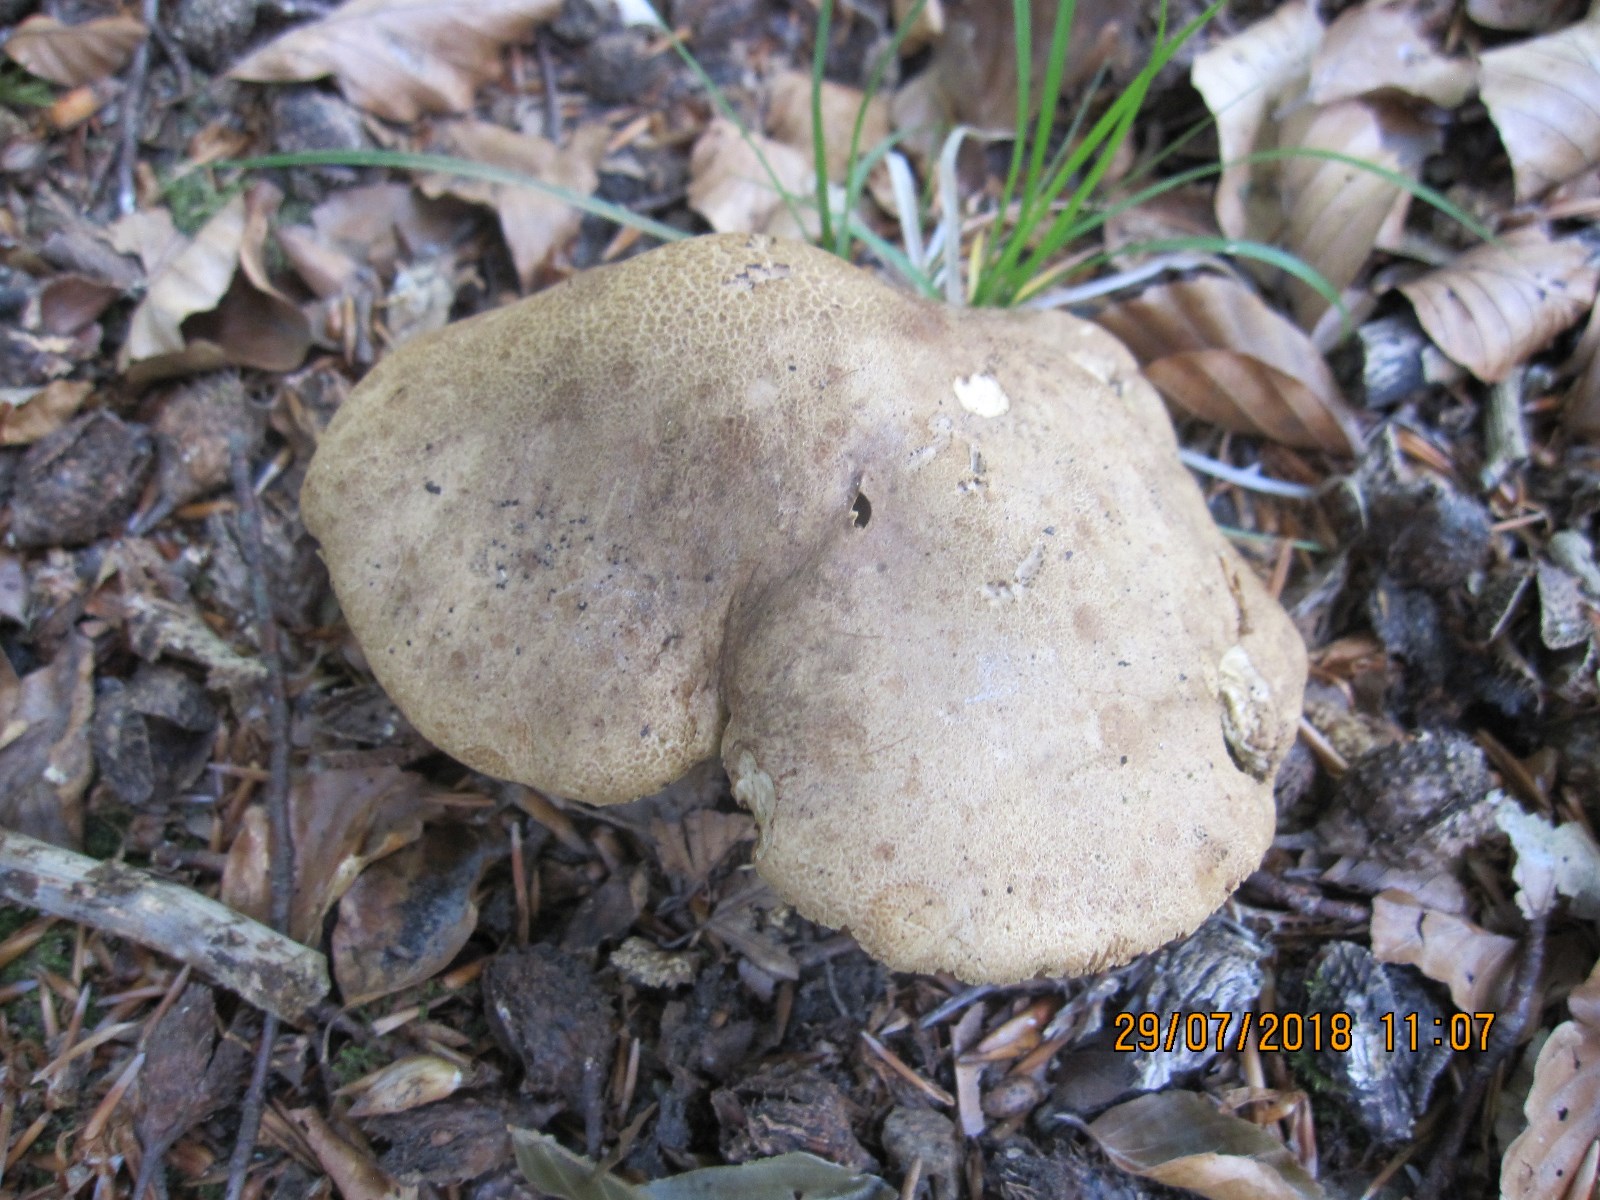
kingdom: Fungi
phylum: Basidiomycota
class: Agaricomycetes
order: Boletales
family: Boletaceae
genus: Boletus
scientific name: Boletus reticulatus
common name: sommer-rørhat
